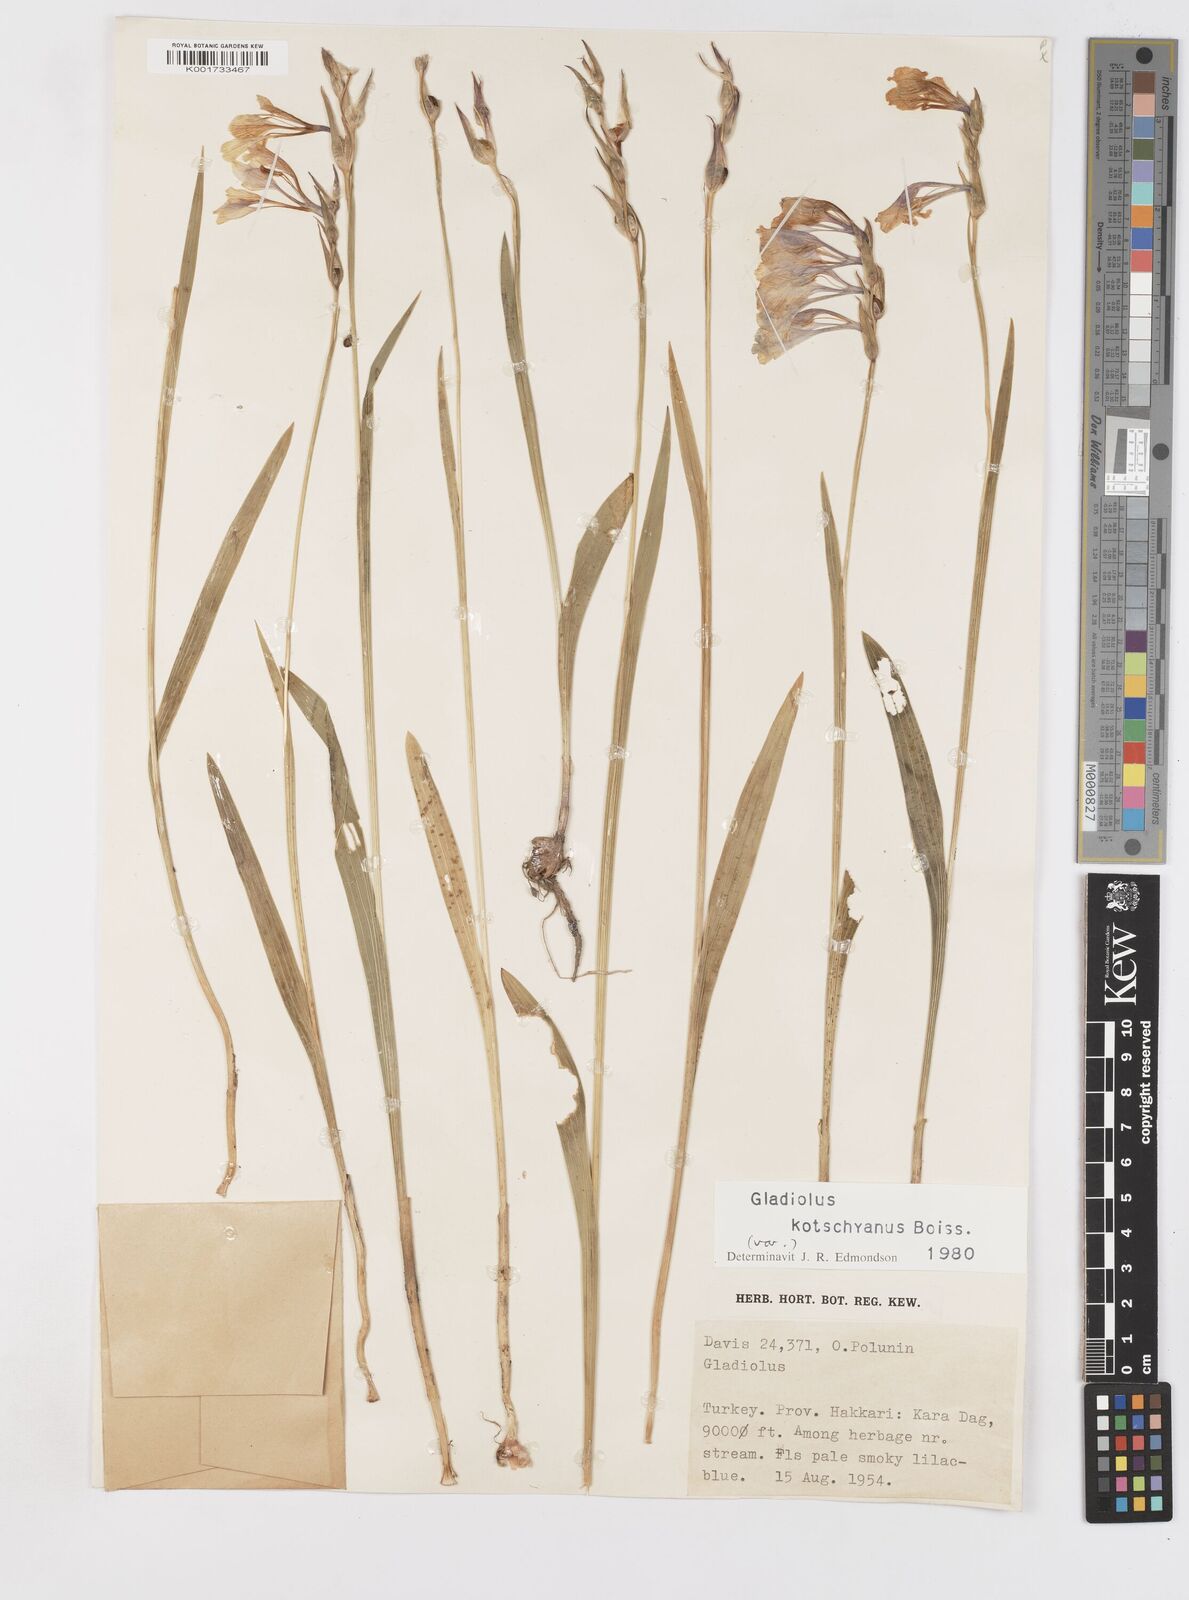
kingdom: Plantae
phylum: Tracheophyta
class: Liliopsida
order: Asparagales
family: Iridaceae
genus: Gladiolus
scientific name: Gladiolus kotschyanus
